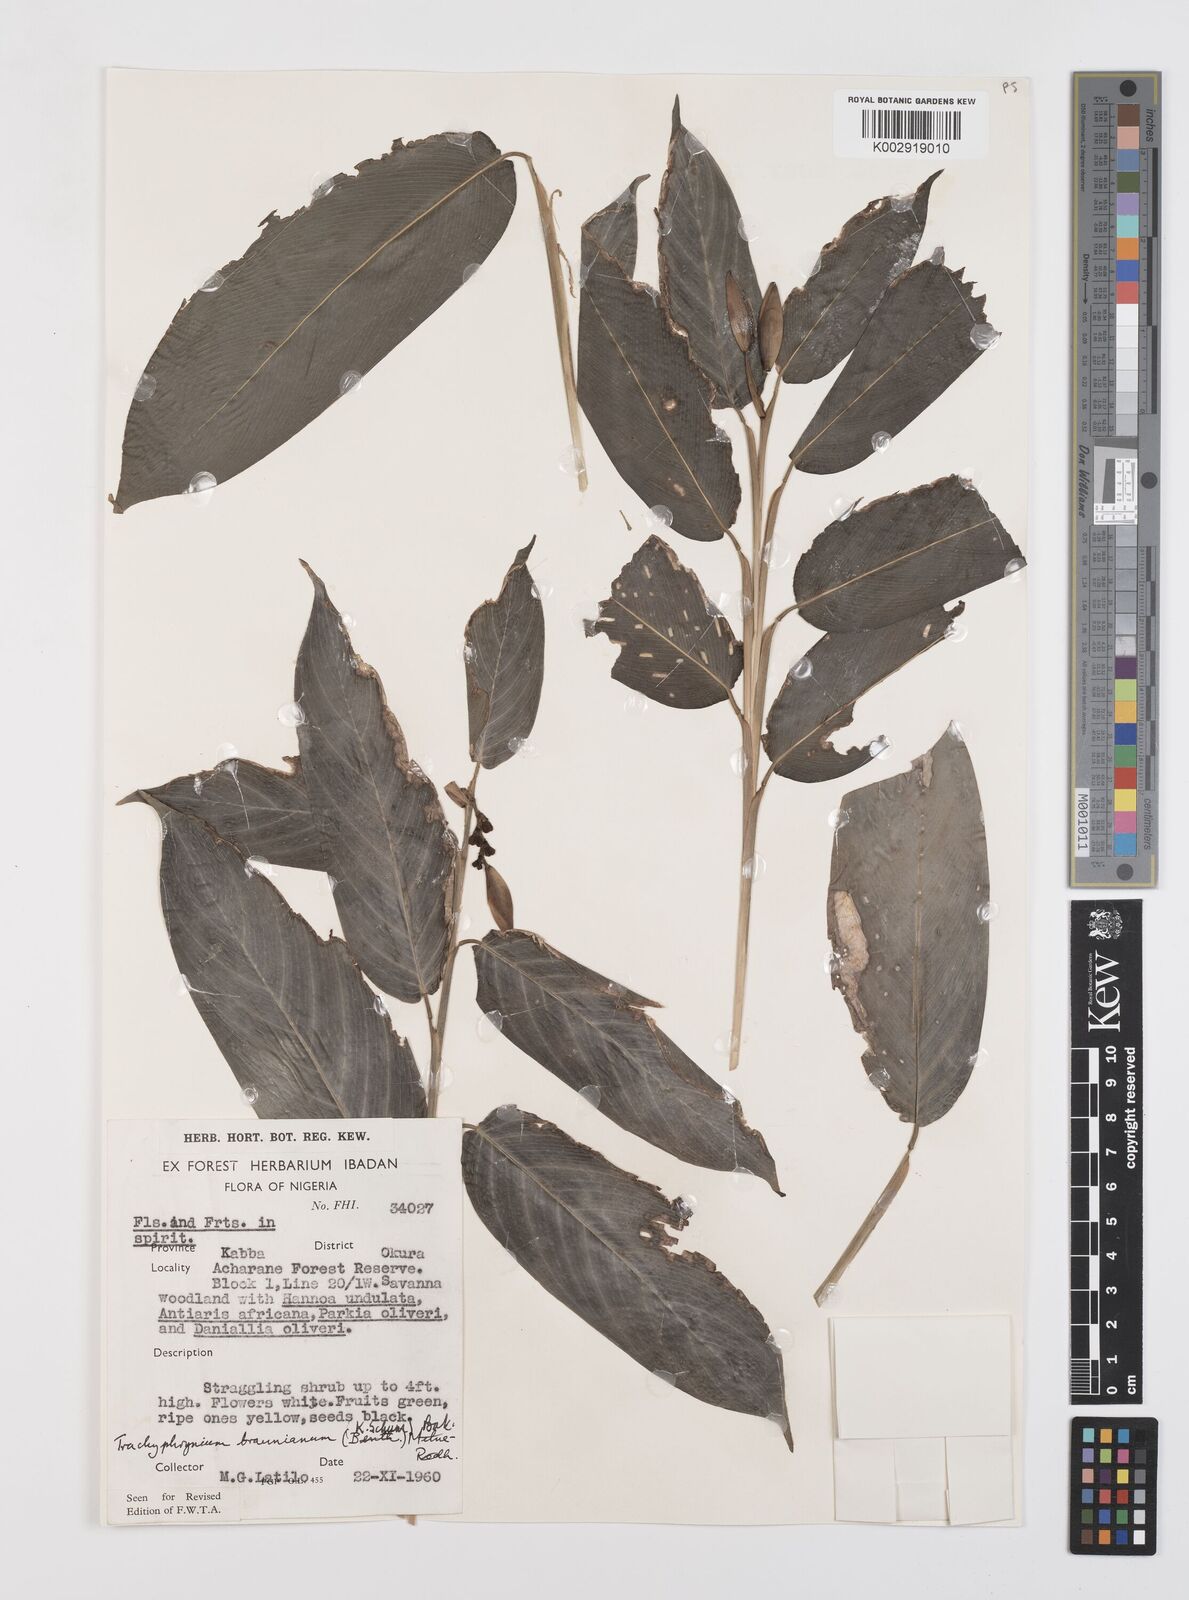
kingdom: Plantae
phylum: Tracheophyta
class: Liliopsida
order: Zingiberales
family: Marantaceae
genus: Trachyphrynium
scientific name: Trachyphrynium braunianum
